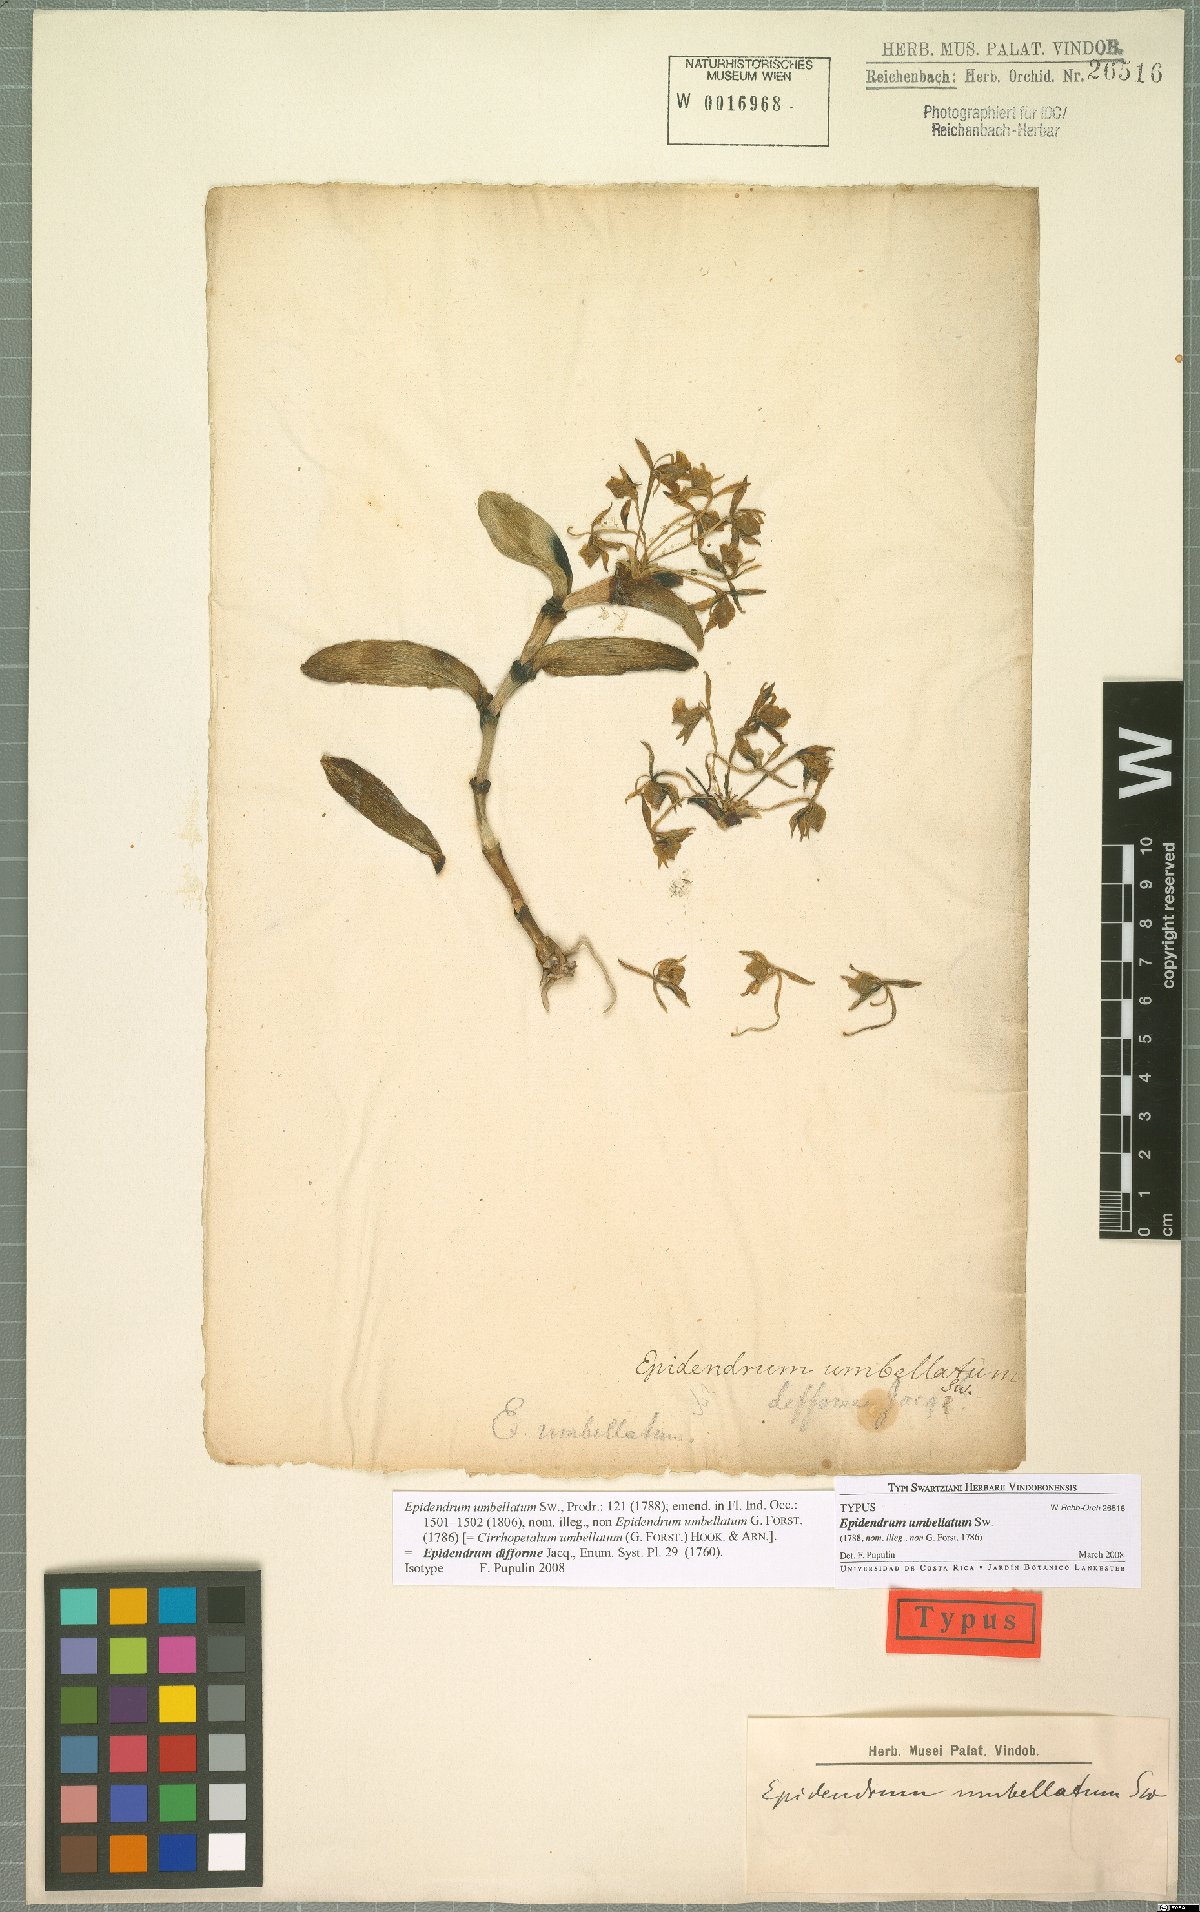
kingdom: Plantae
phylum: Tracheophyta
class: Liliopsida
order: Asparagales
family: Orchidaceae
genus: Epidendrum
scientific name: Epidendrum difforme
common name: Umbrella epidendrum
